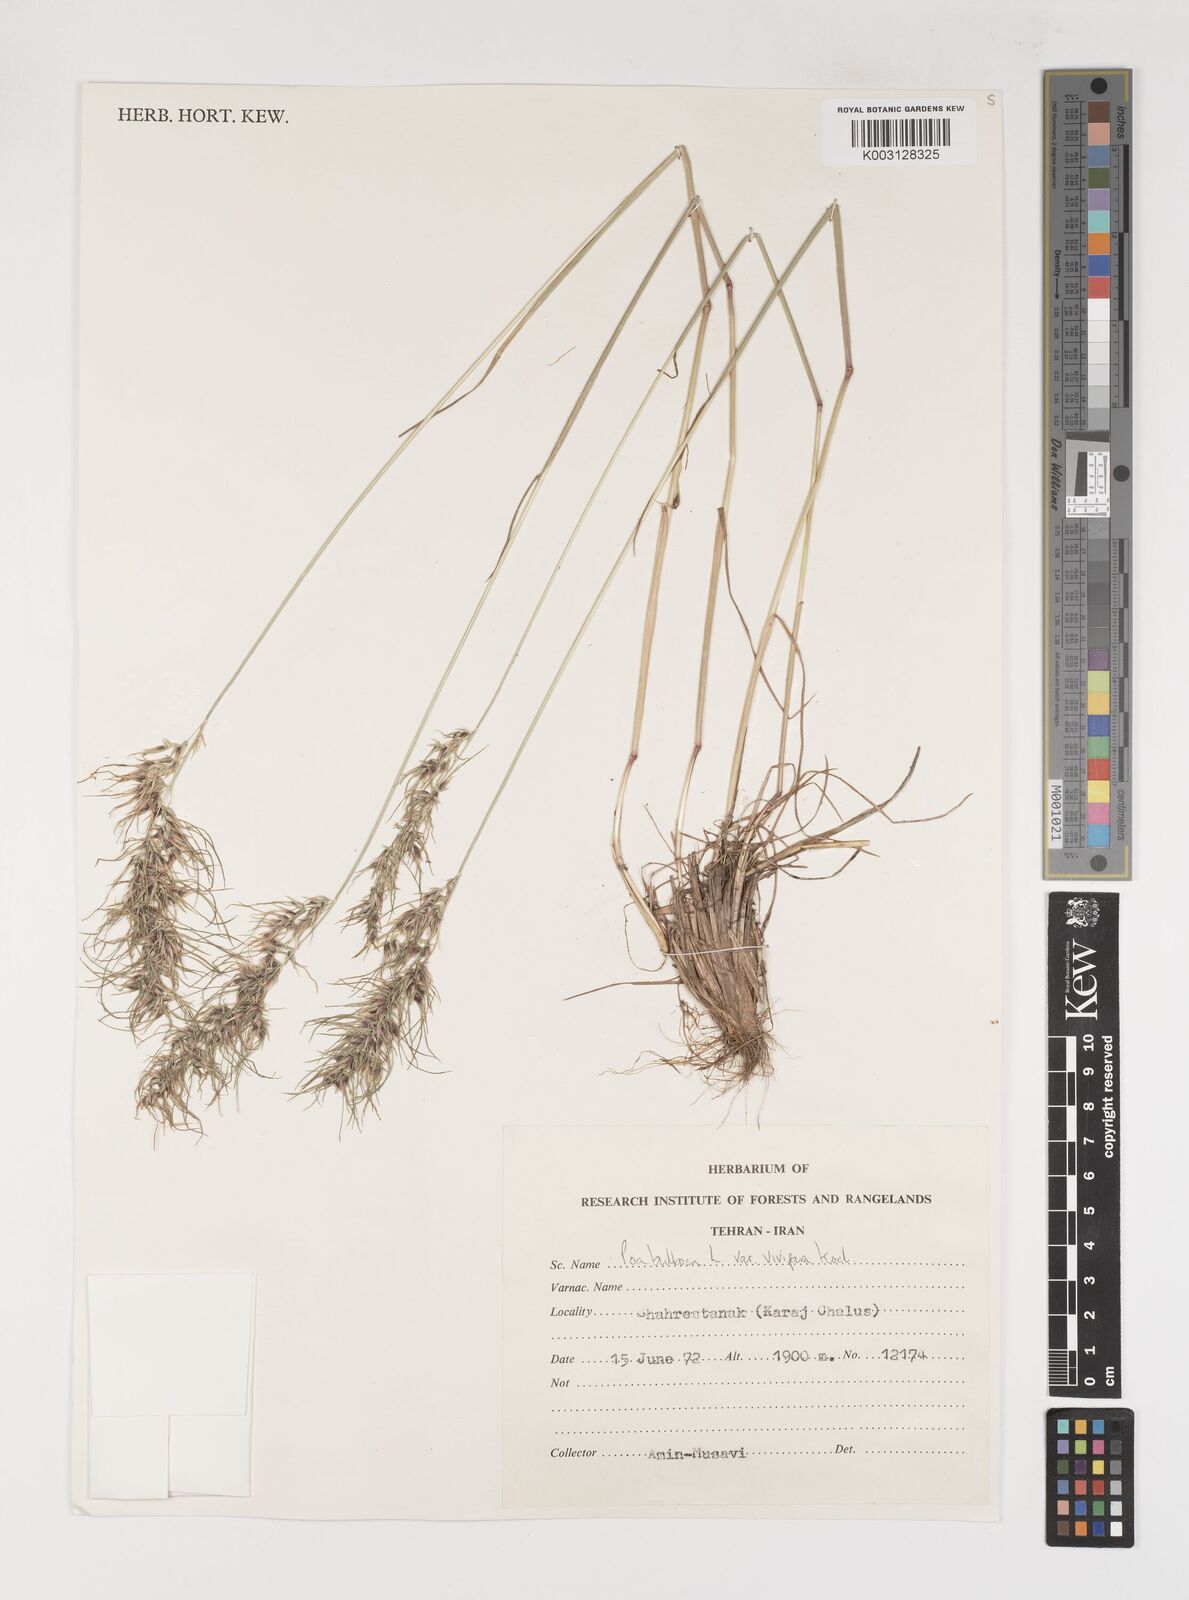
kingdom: Plantae
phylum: Tracheophyta
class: Liliopsida
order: Poales
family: Poaceae
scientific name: Poaceae
